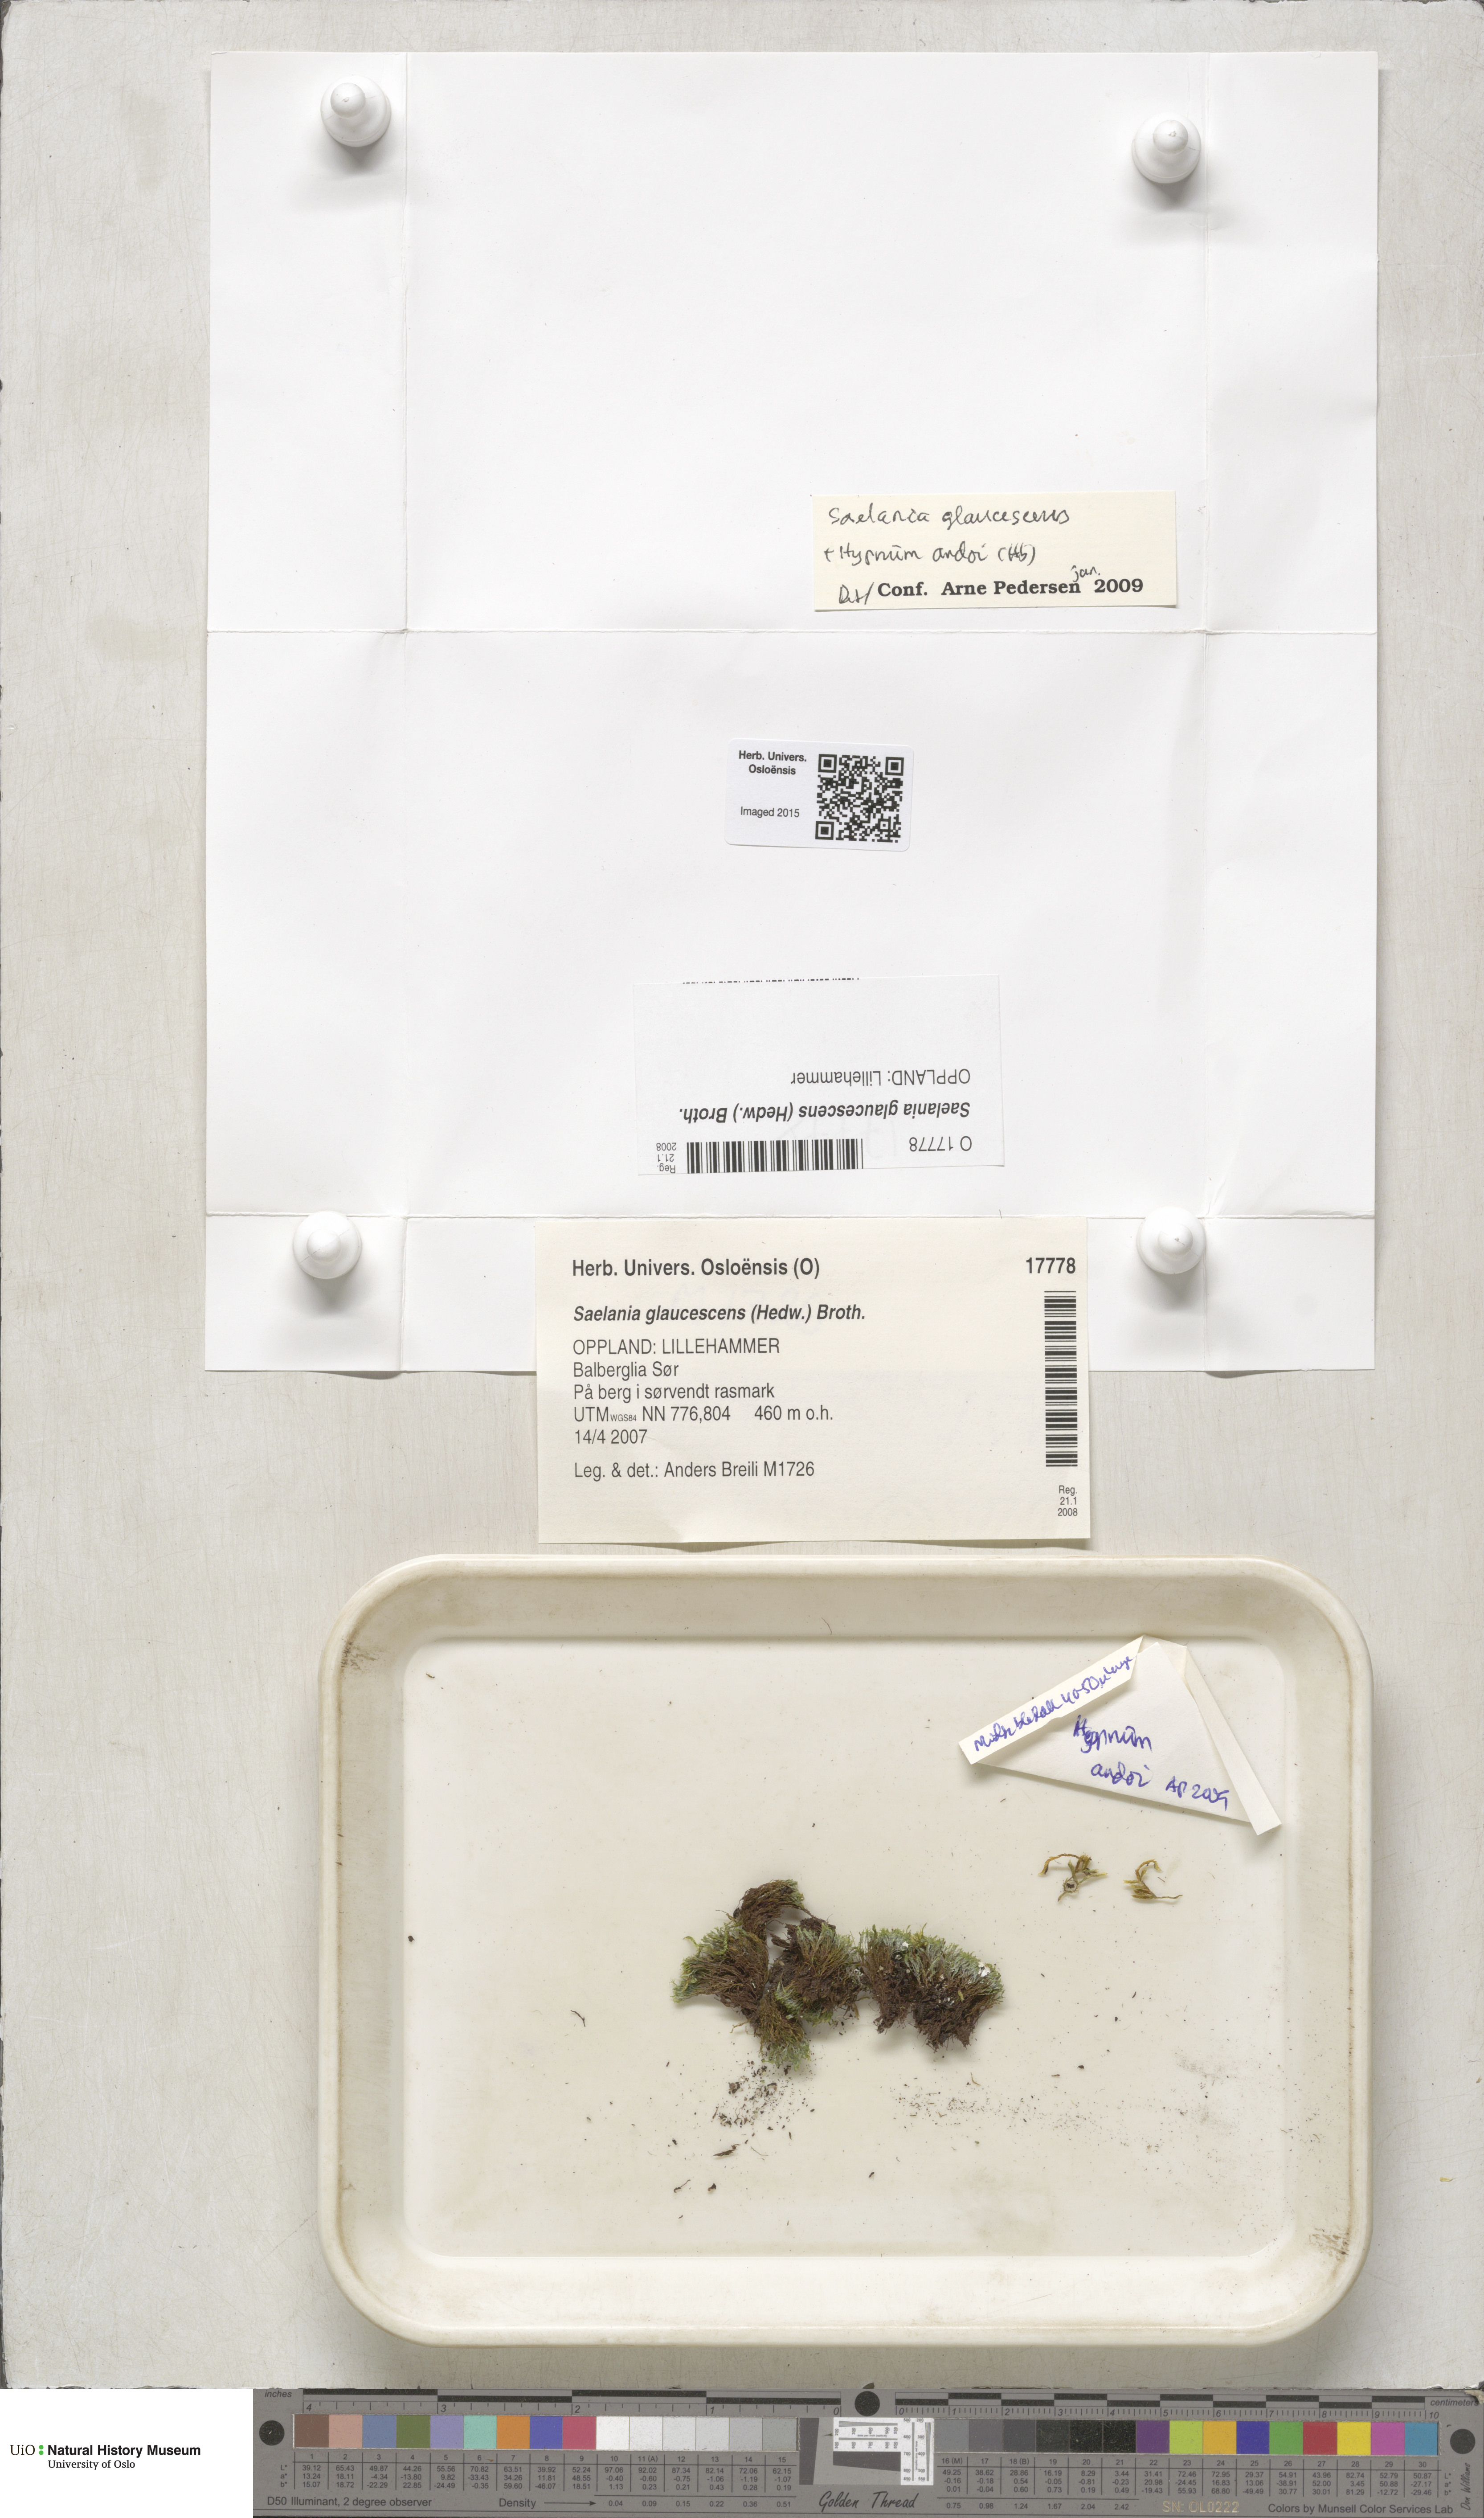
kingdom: Plantae
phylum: Bryophyta
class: Bryopsida
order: Grimmiales
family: Saelaniaceae
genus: Saelania
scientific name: Saelania glaucescens
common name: Blue dew-moss
